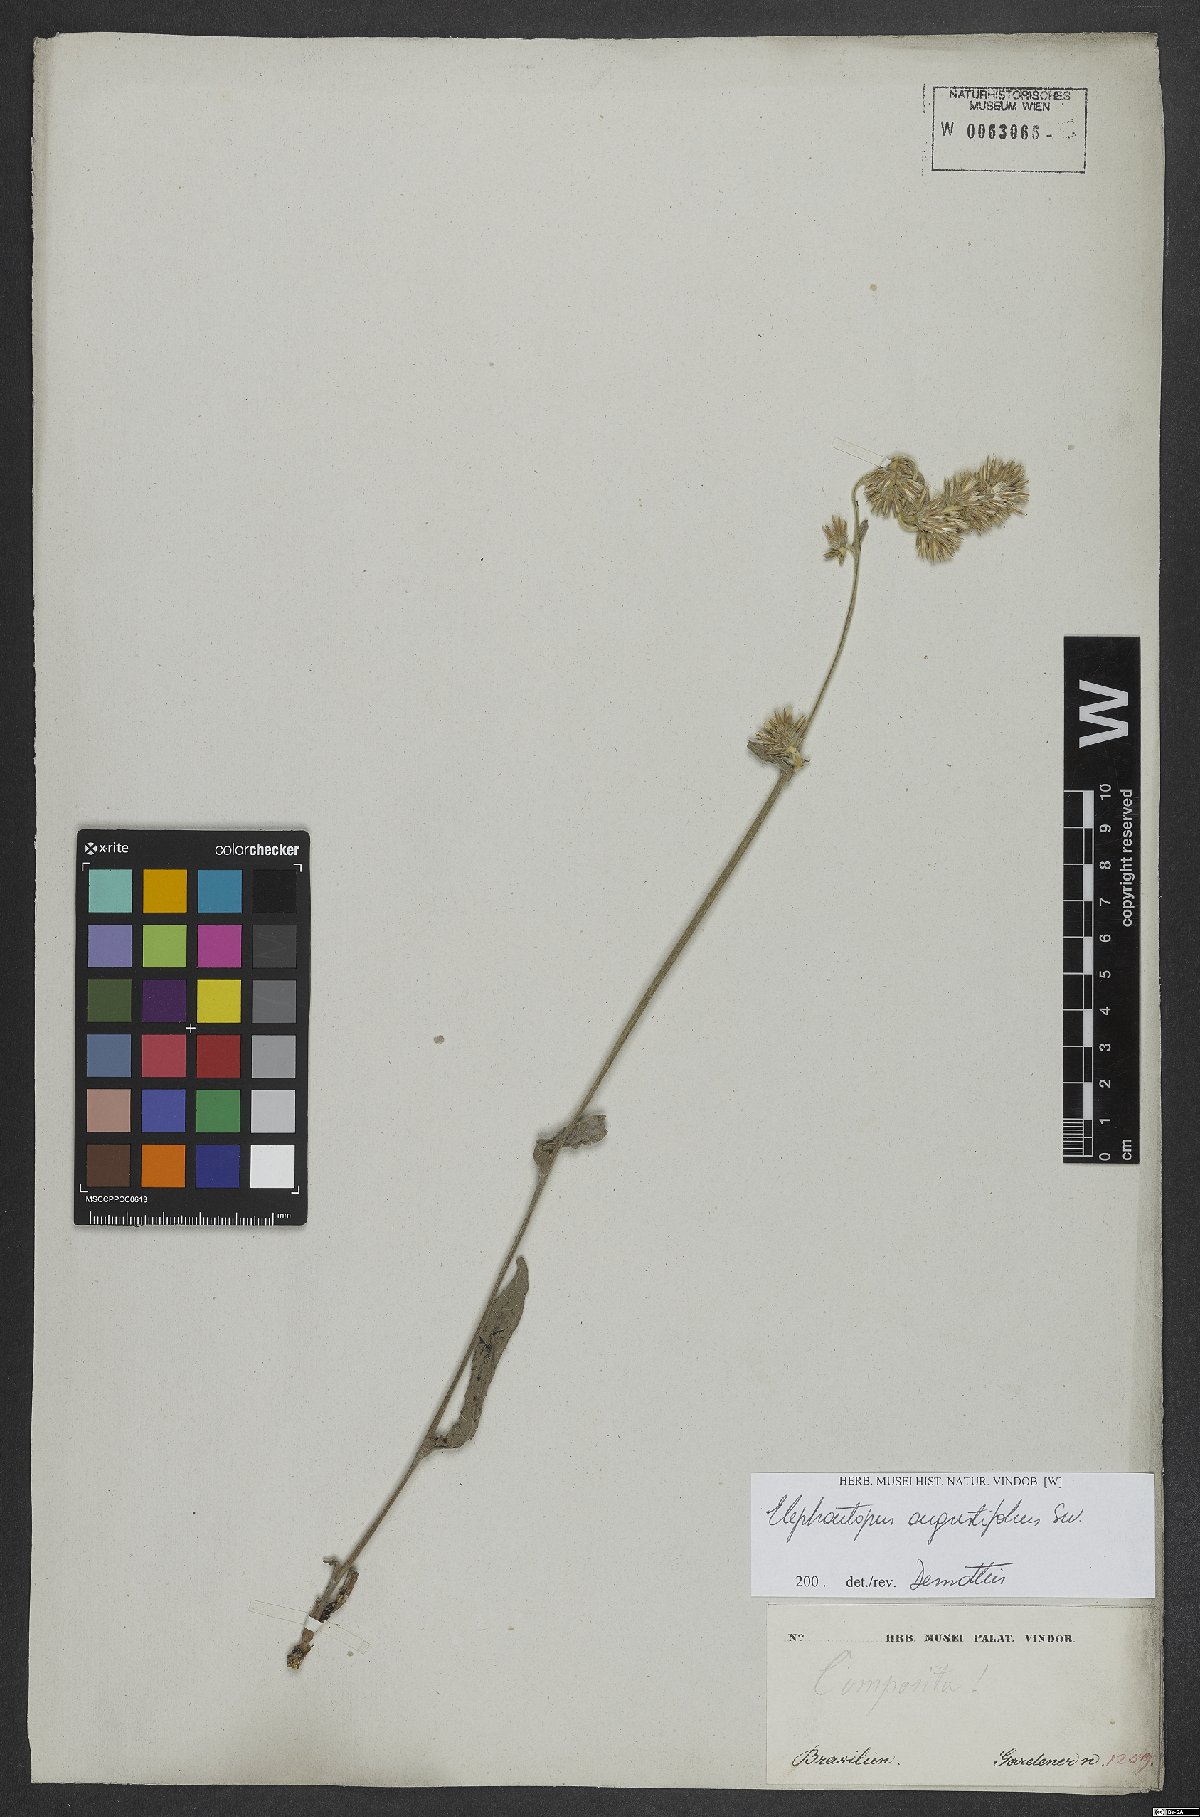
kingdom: Plantae
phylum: Tracheophyta
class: Magnoliopsida
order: Asterales
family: Asteraceae
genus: Orthopappus
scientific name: Orthopappus angustifolius
